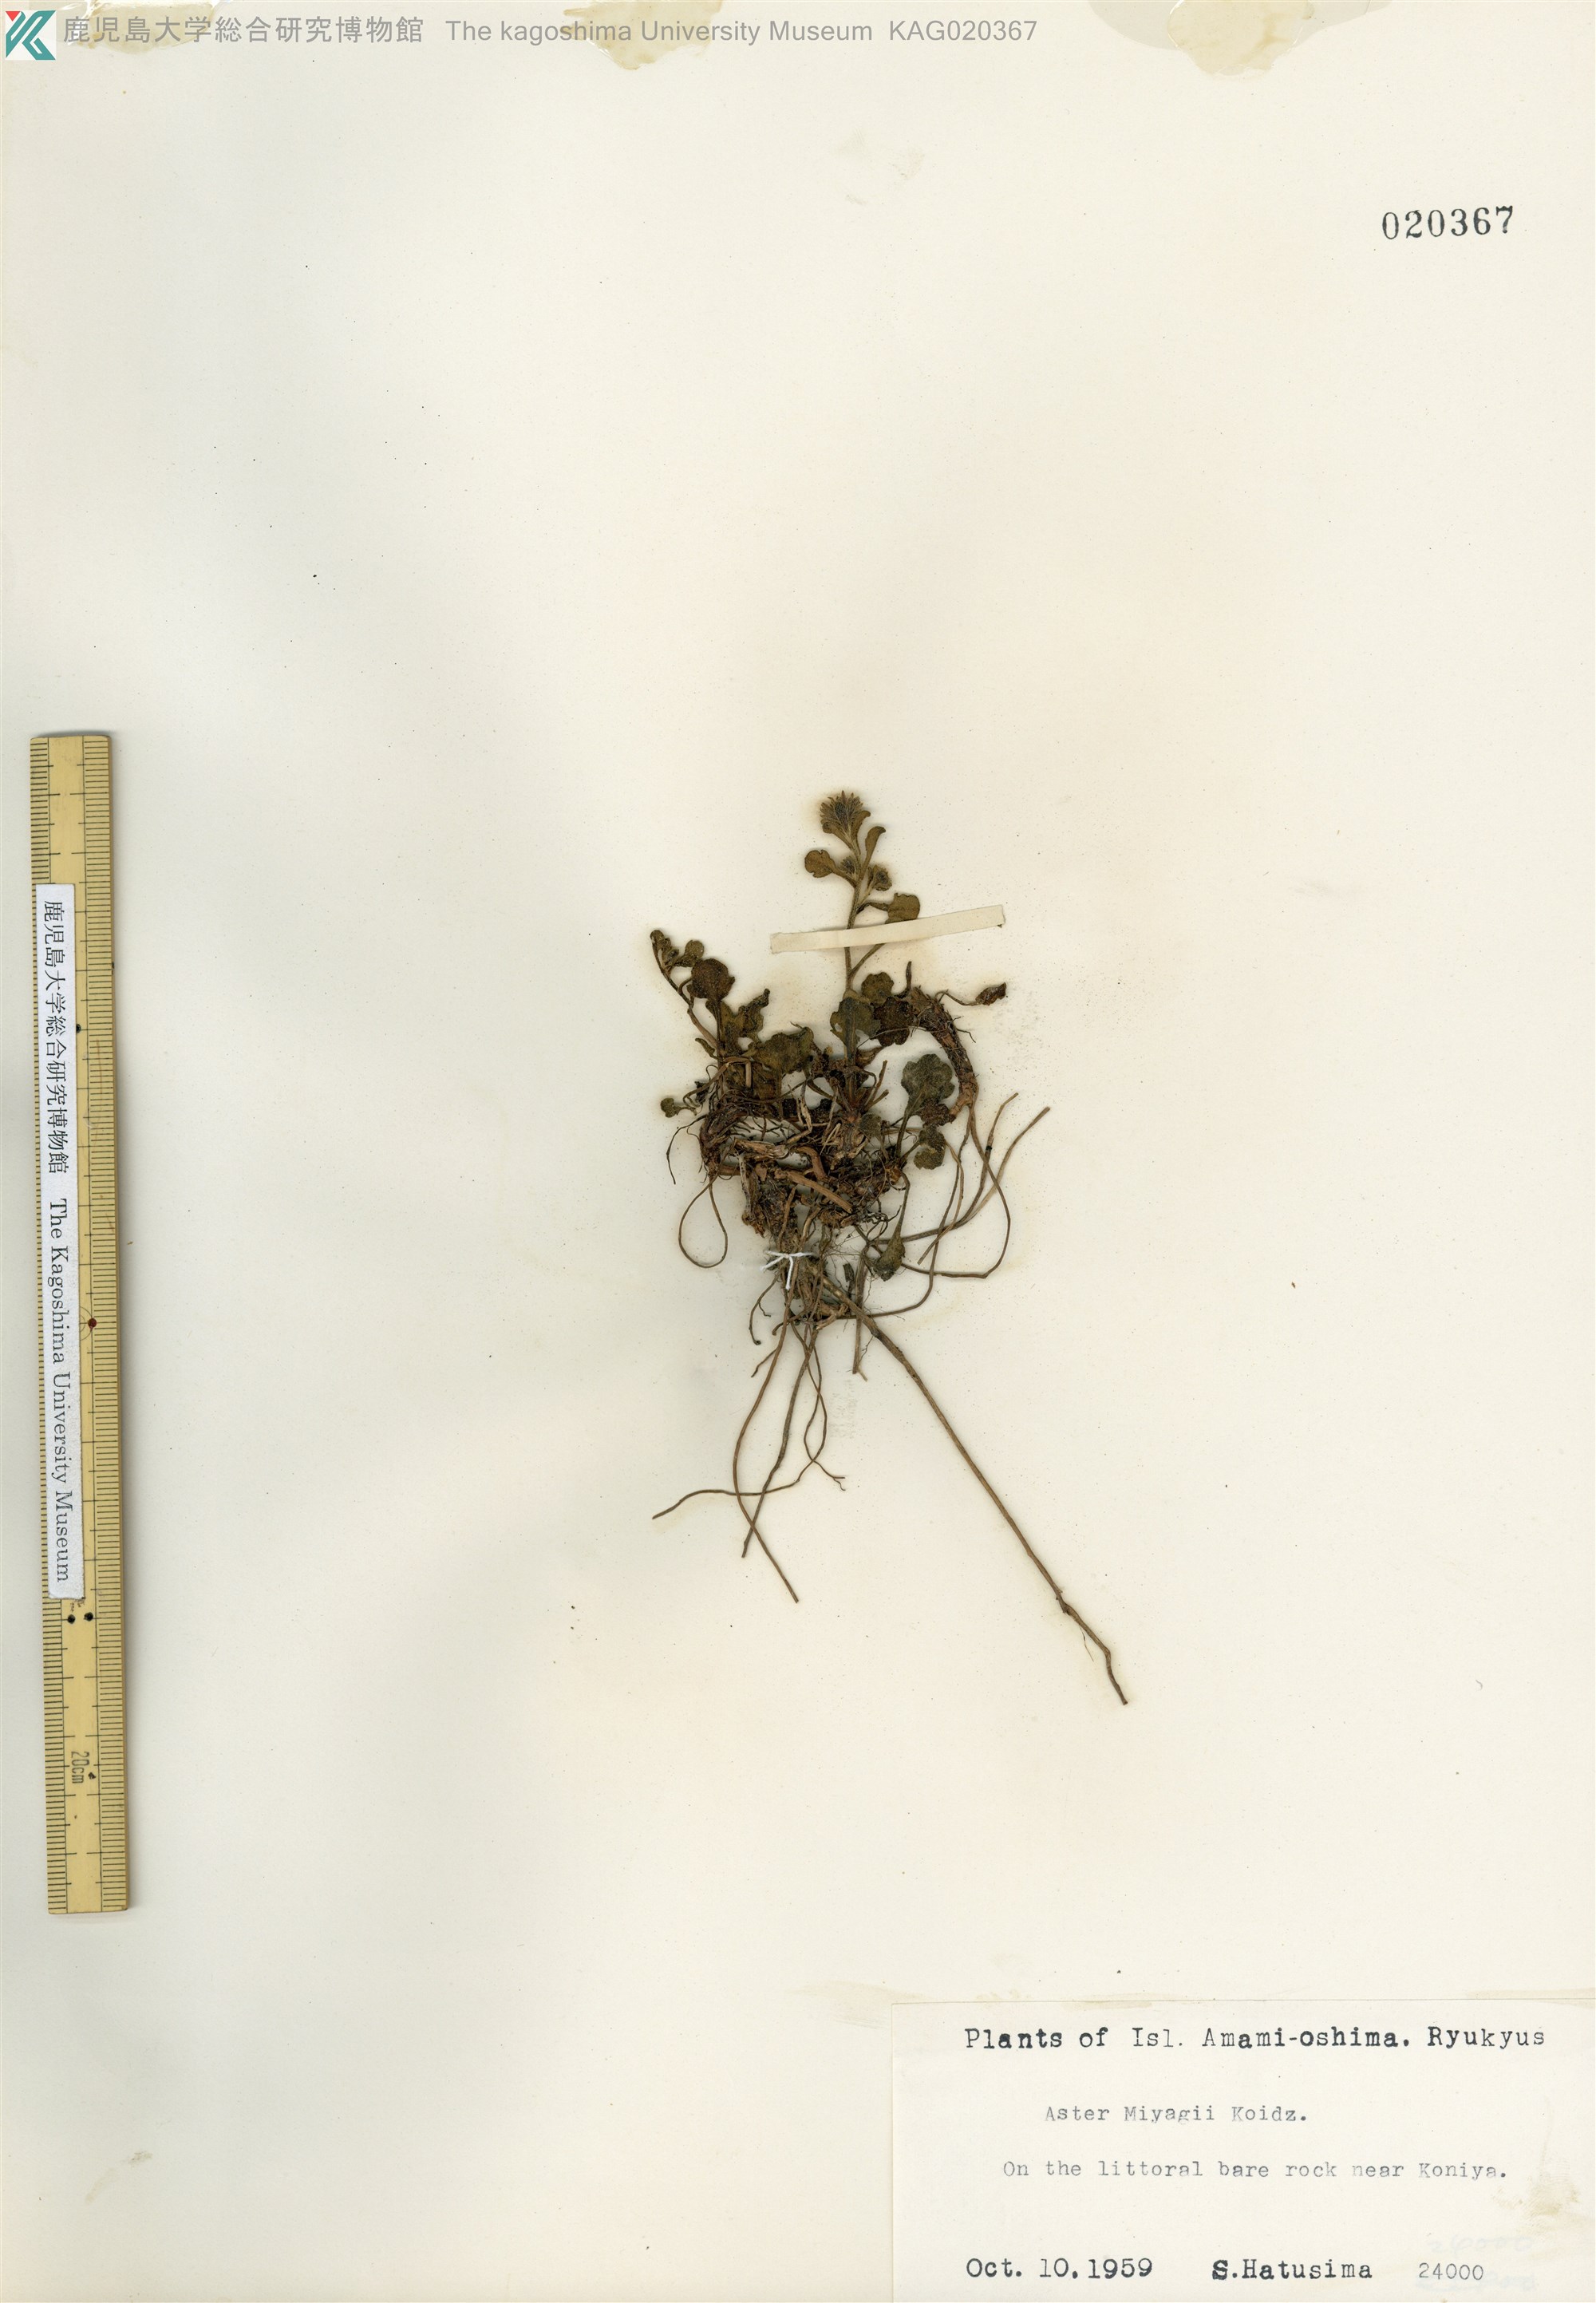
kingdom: Plantae
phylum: Tracheophyta
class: Magnoliopsida
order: Asterales
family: Asteraceae
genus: Aster
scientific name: Aster miyagii
